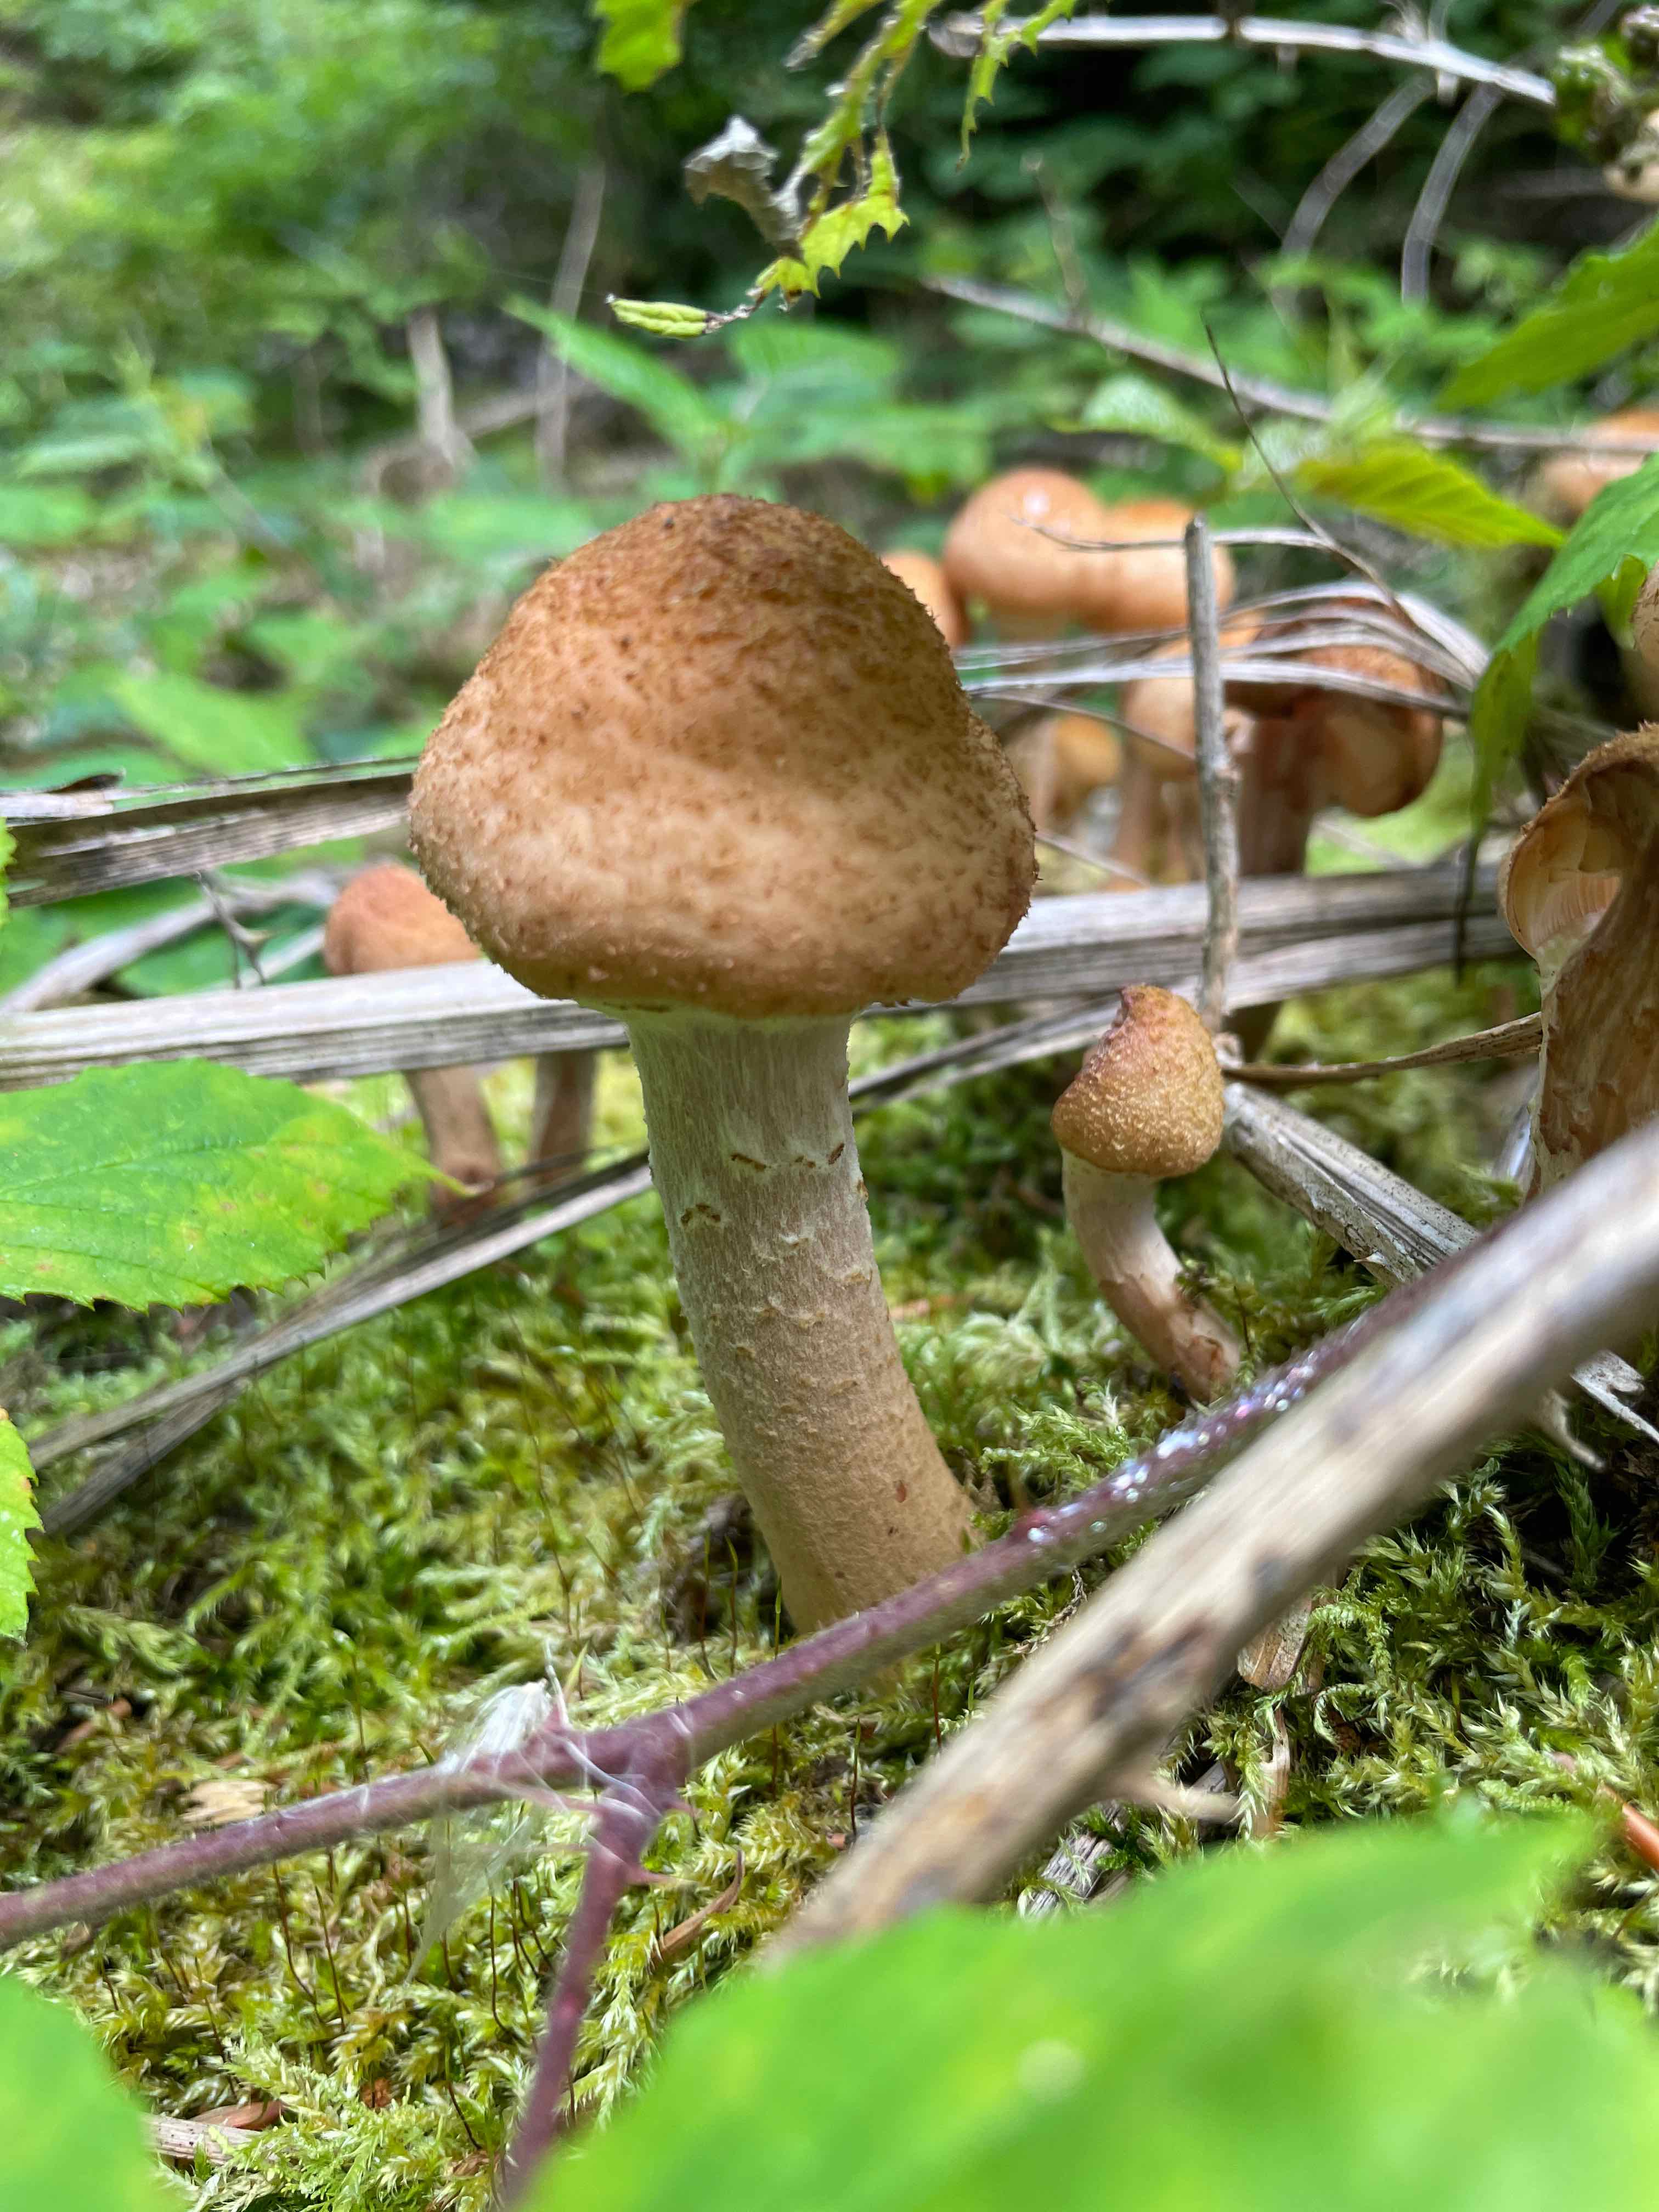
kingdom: Fungi
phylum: Basidiomycota
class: Agaricomycetes
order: Agaricales
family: Physalacriaceae
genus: Armillaria
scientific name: Armillaria ostoyae
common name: mørk honningsvamp
